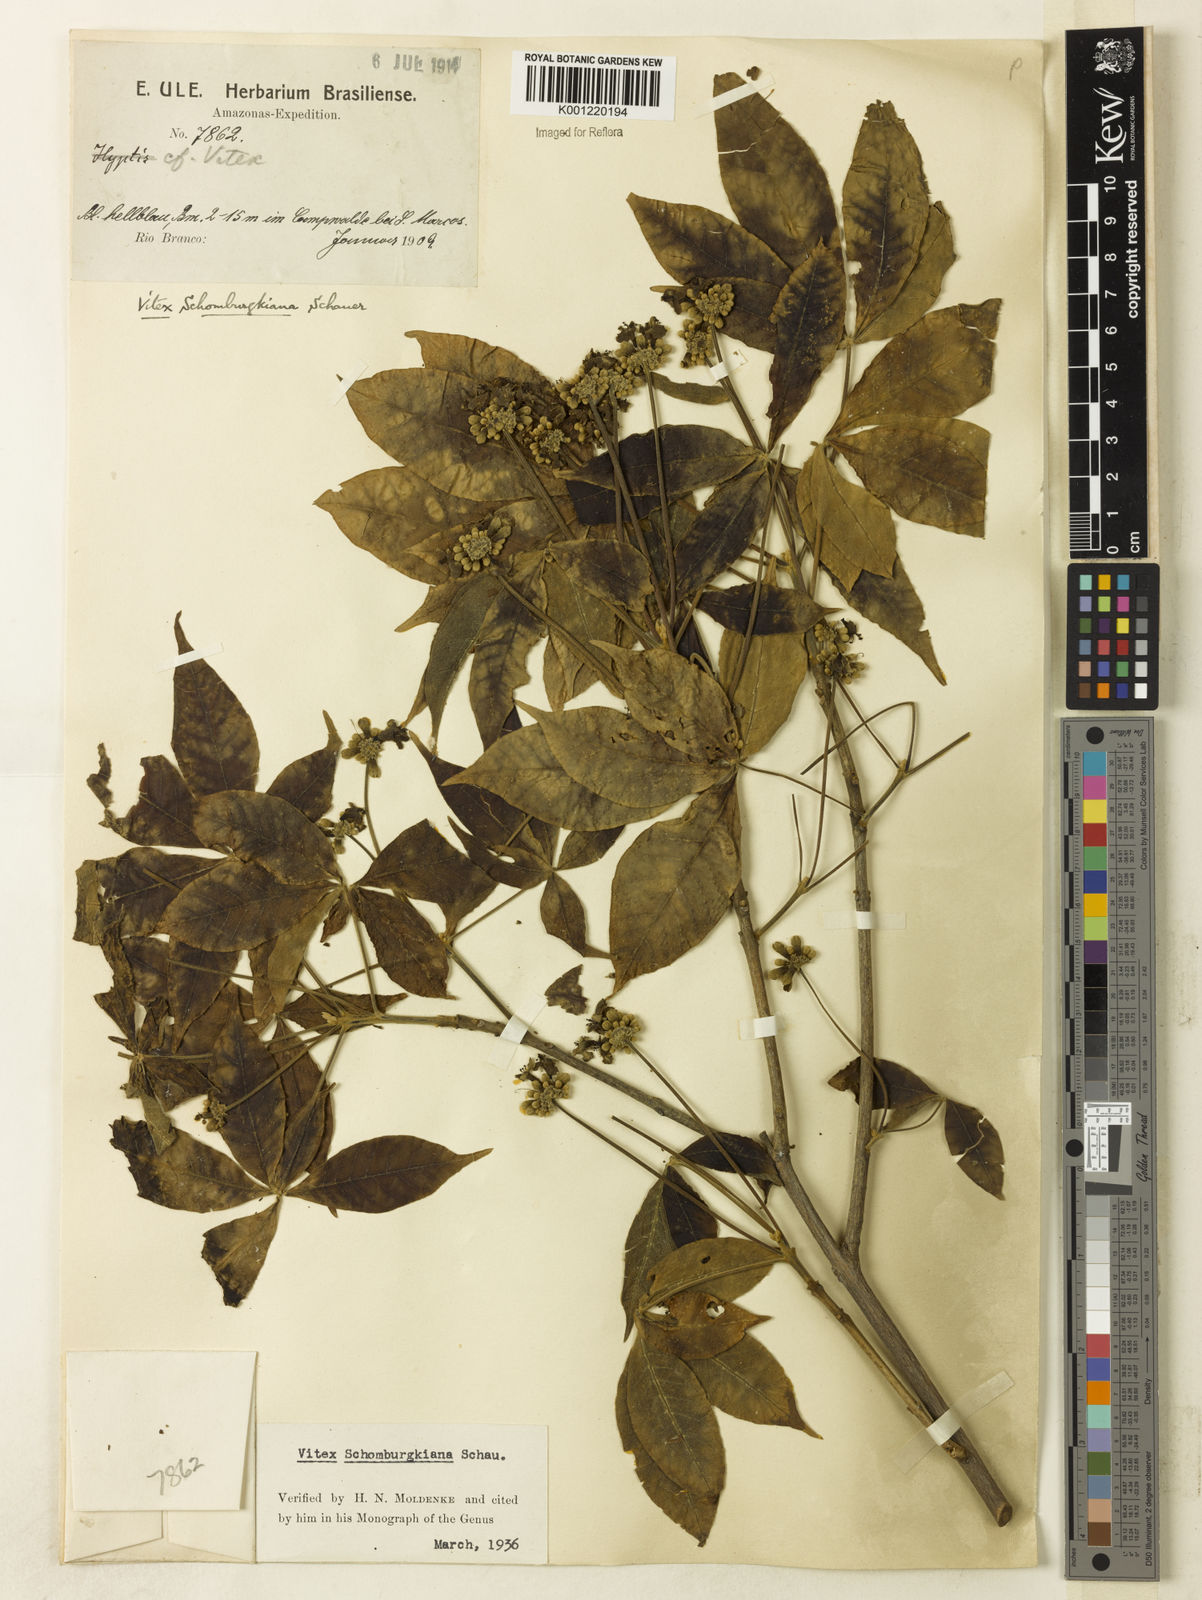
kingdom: Plantae
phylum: Tracheophyta
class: Magnoliopsida
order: Lamiales
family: Lamiaceae
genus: Vitex
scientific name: Vitex schomburgkiana
